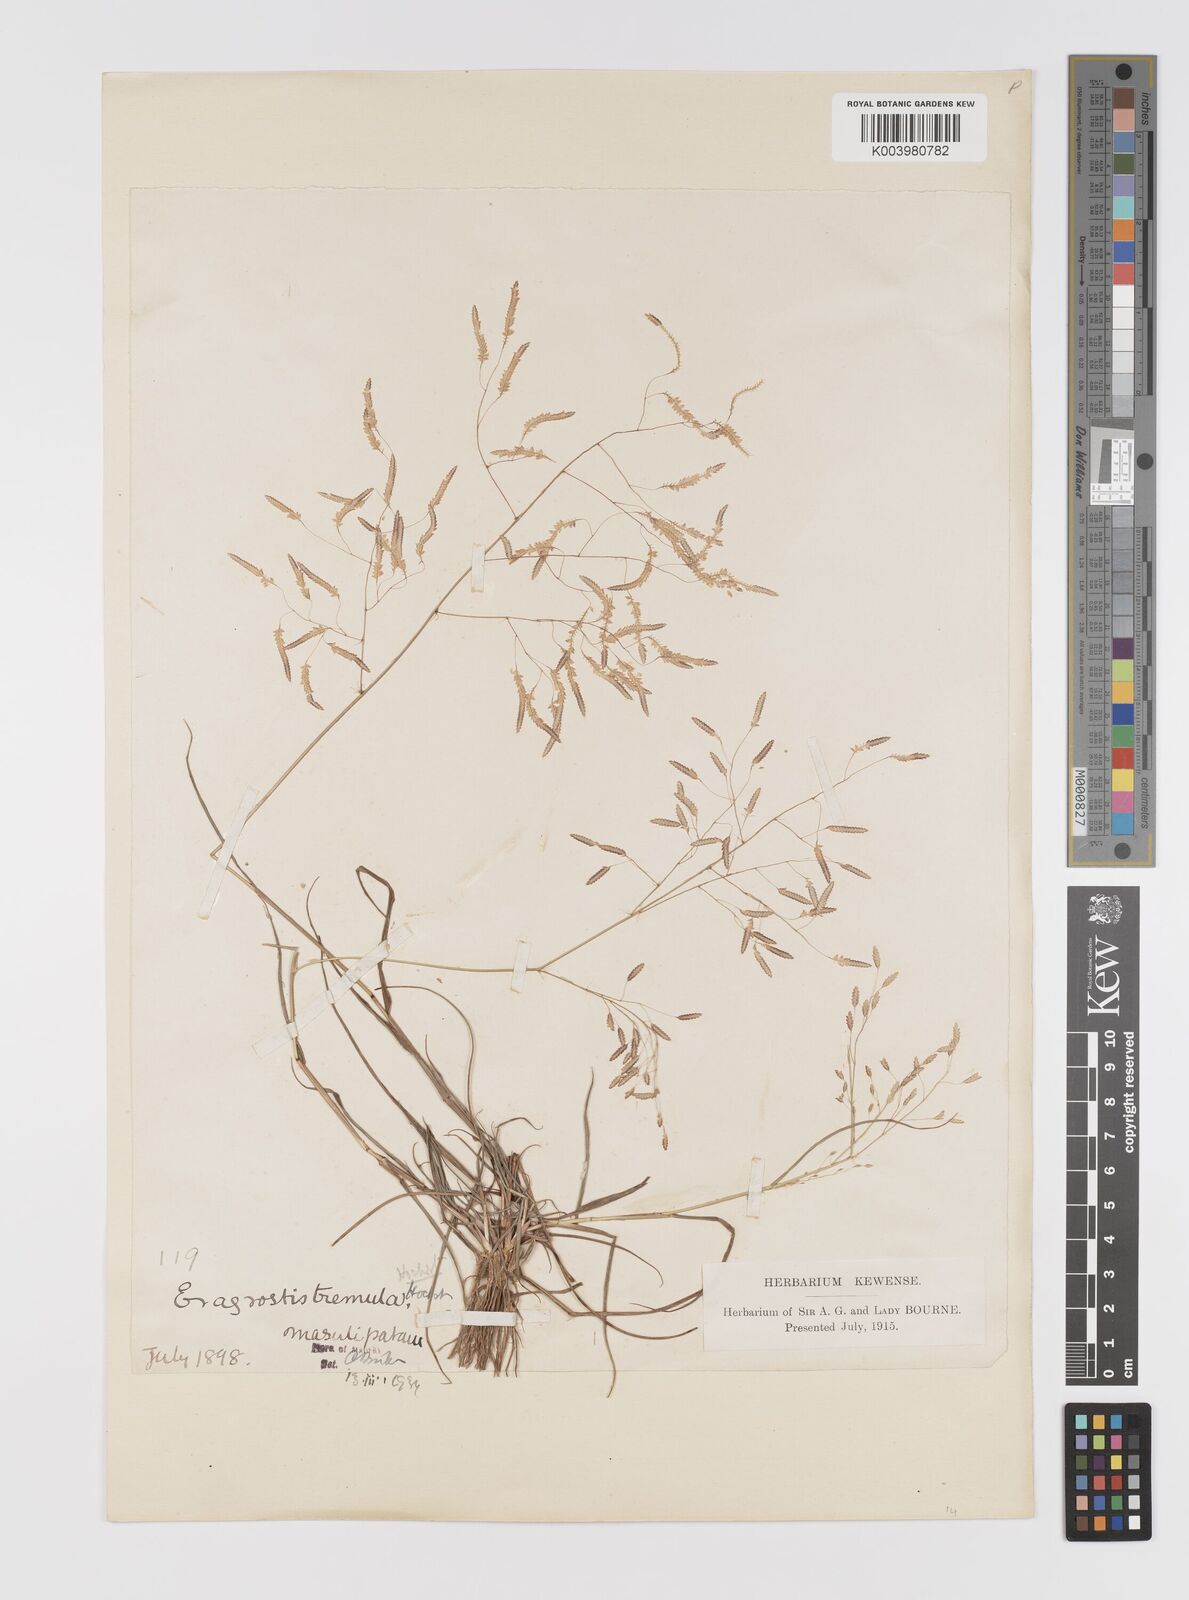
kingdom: Plantae
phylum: Tracheophyta
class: Liliopsida
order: Poales
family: Poaceae
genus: Eragrostis
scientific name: Eragrostis tremula
